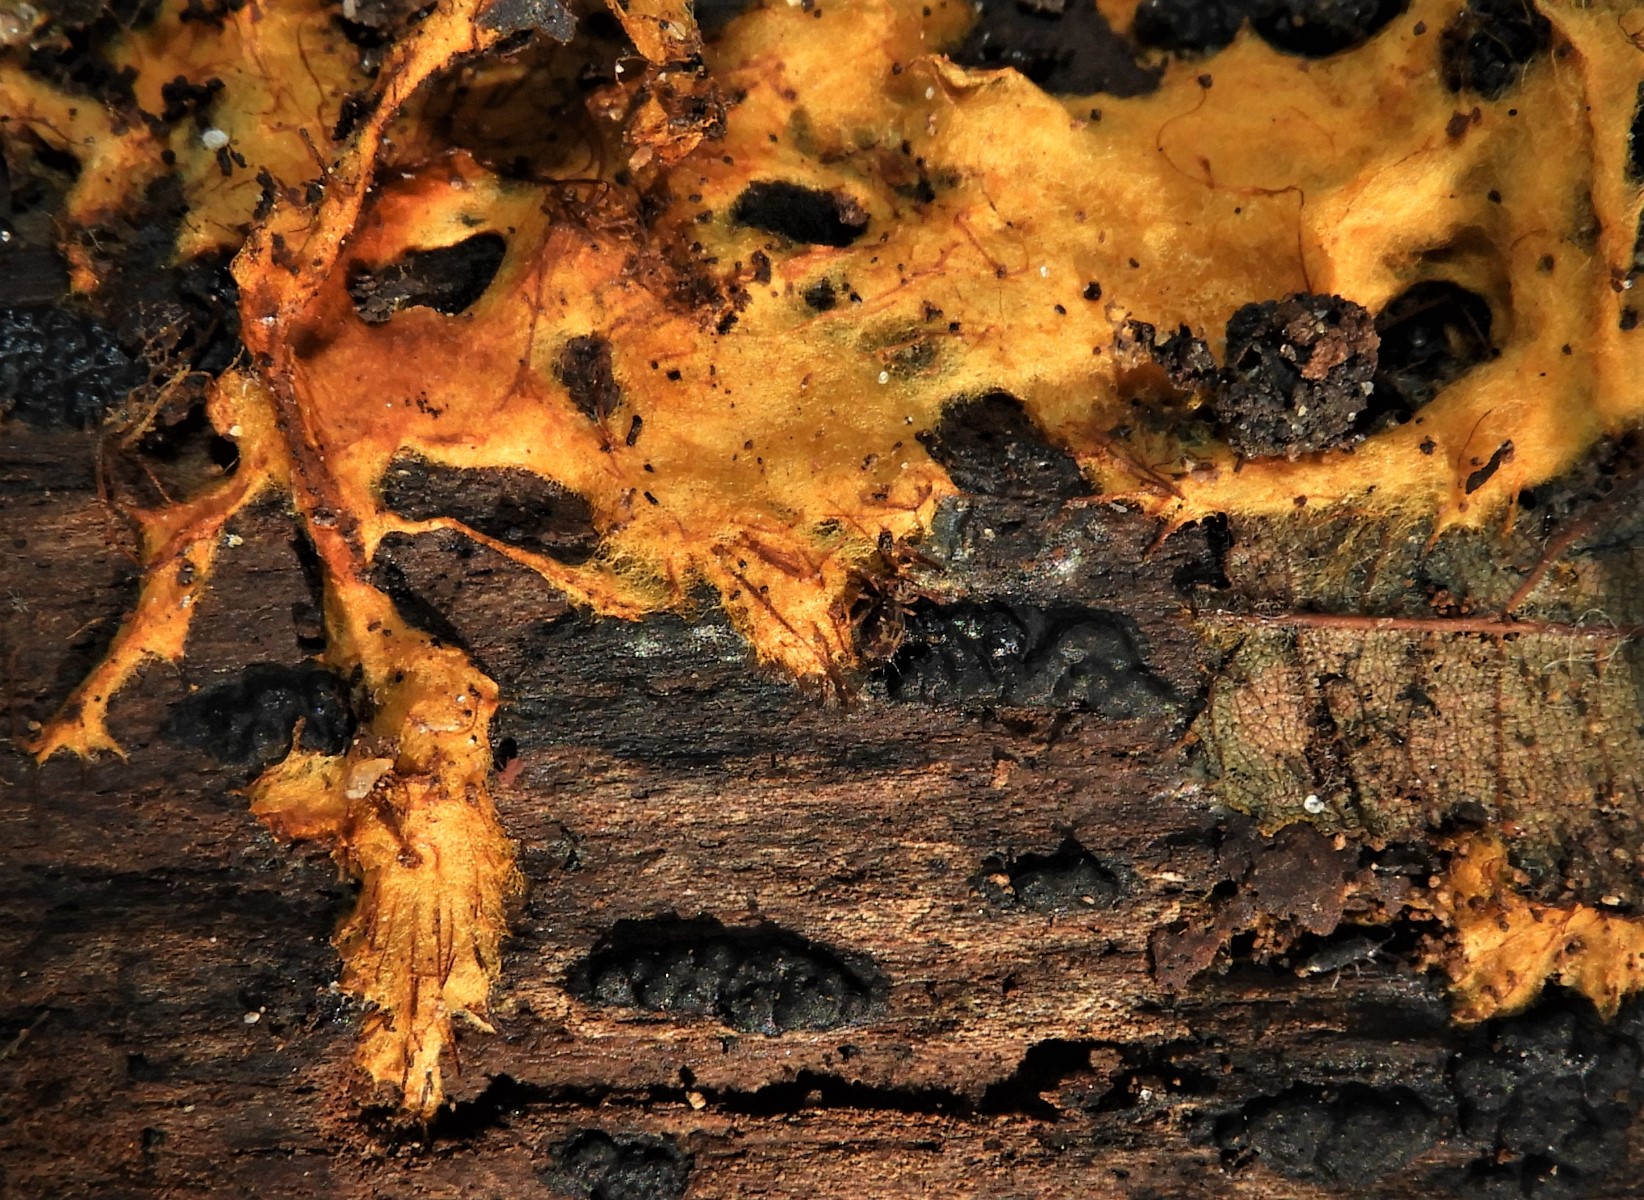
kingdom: Fungi
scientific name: Fungi
